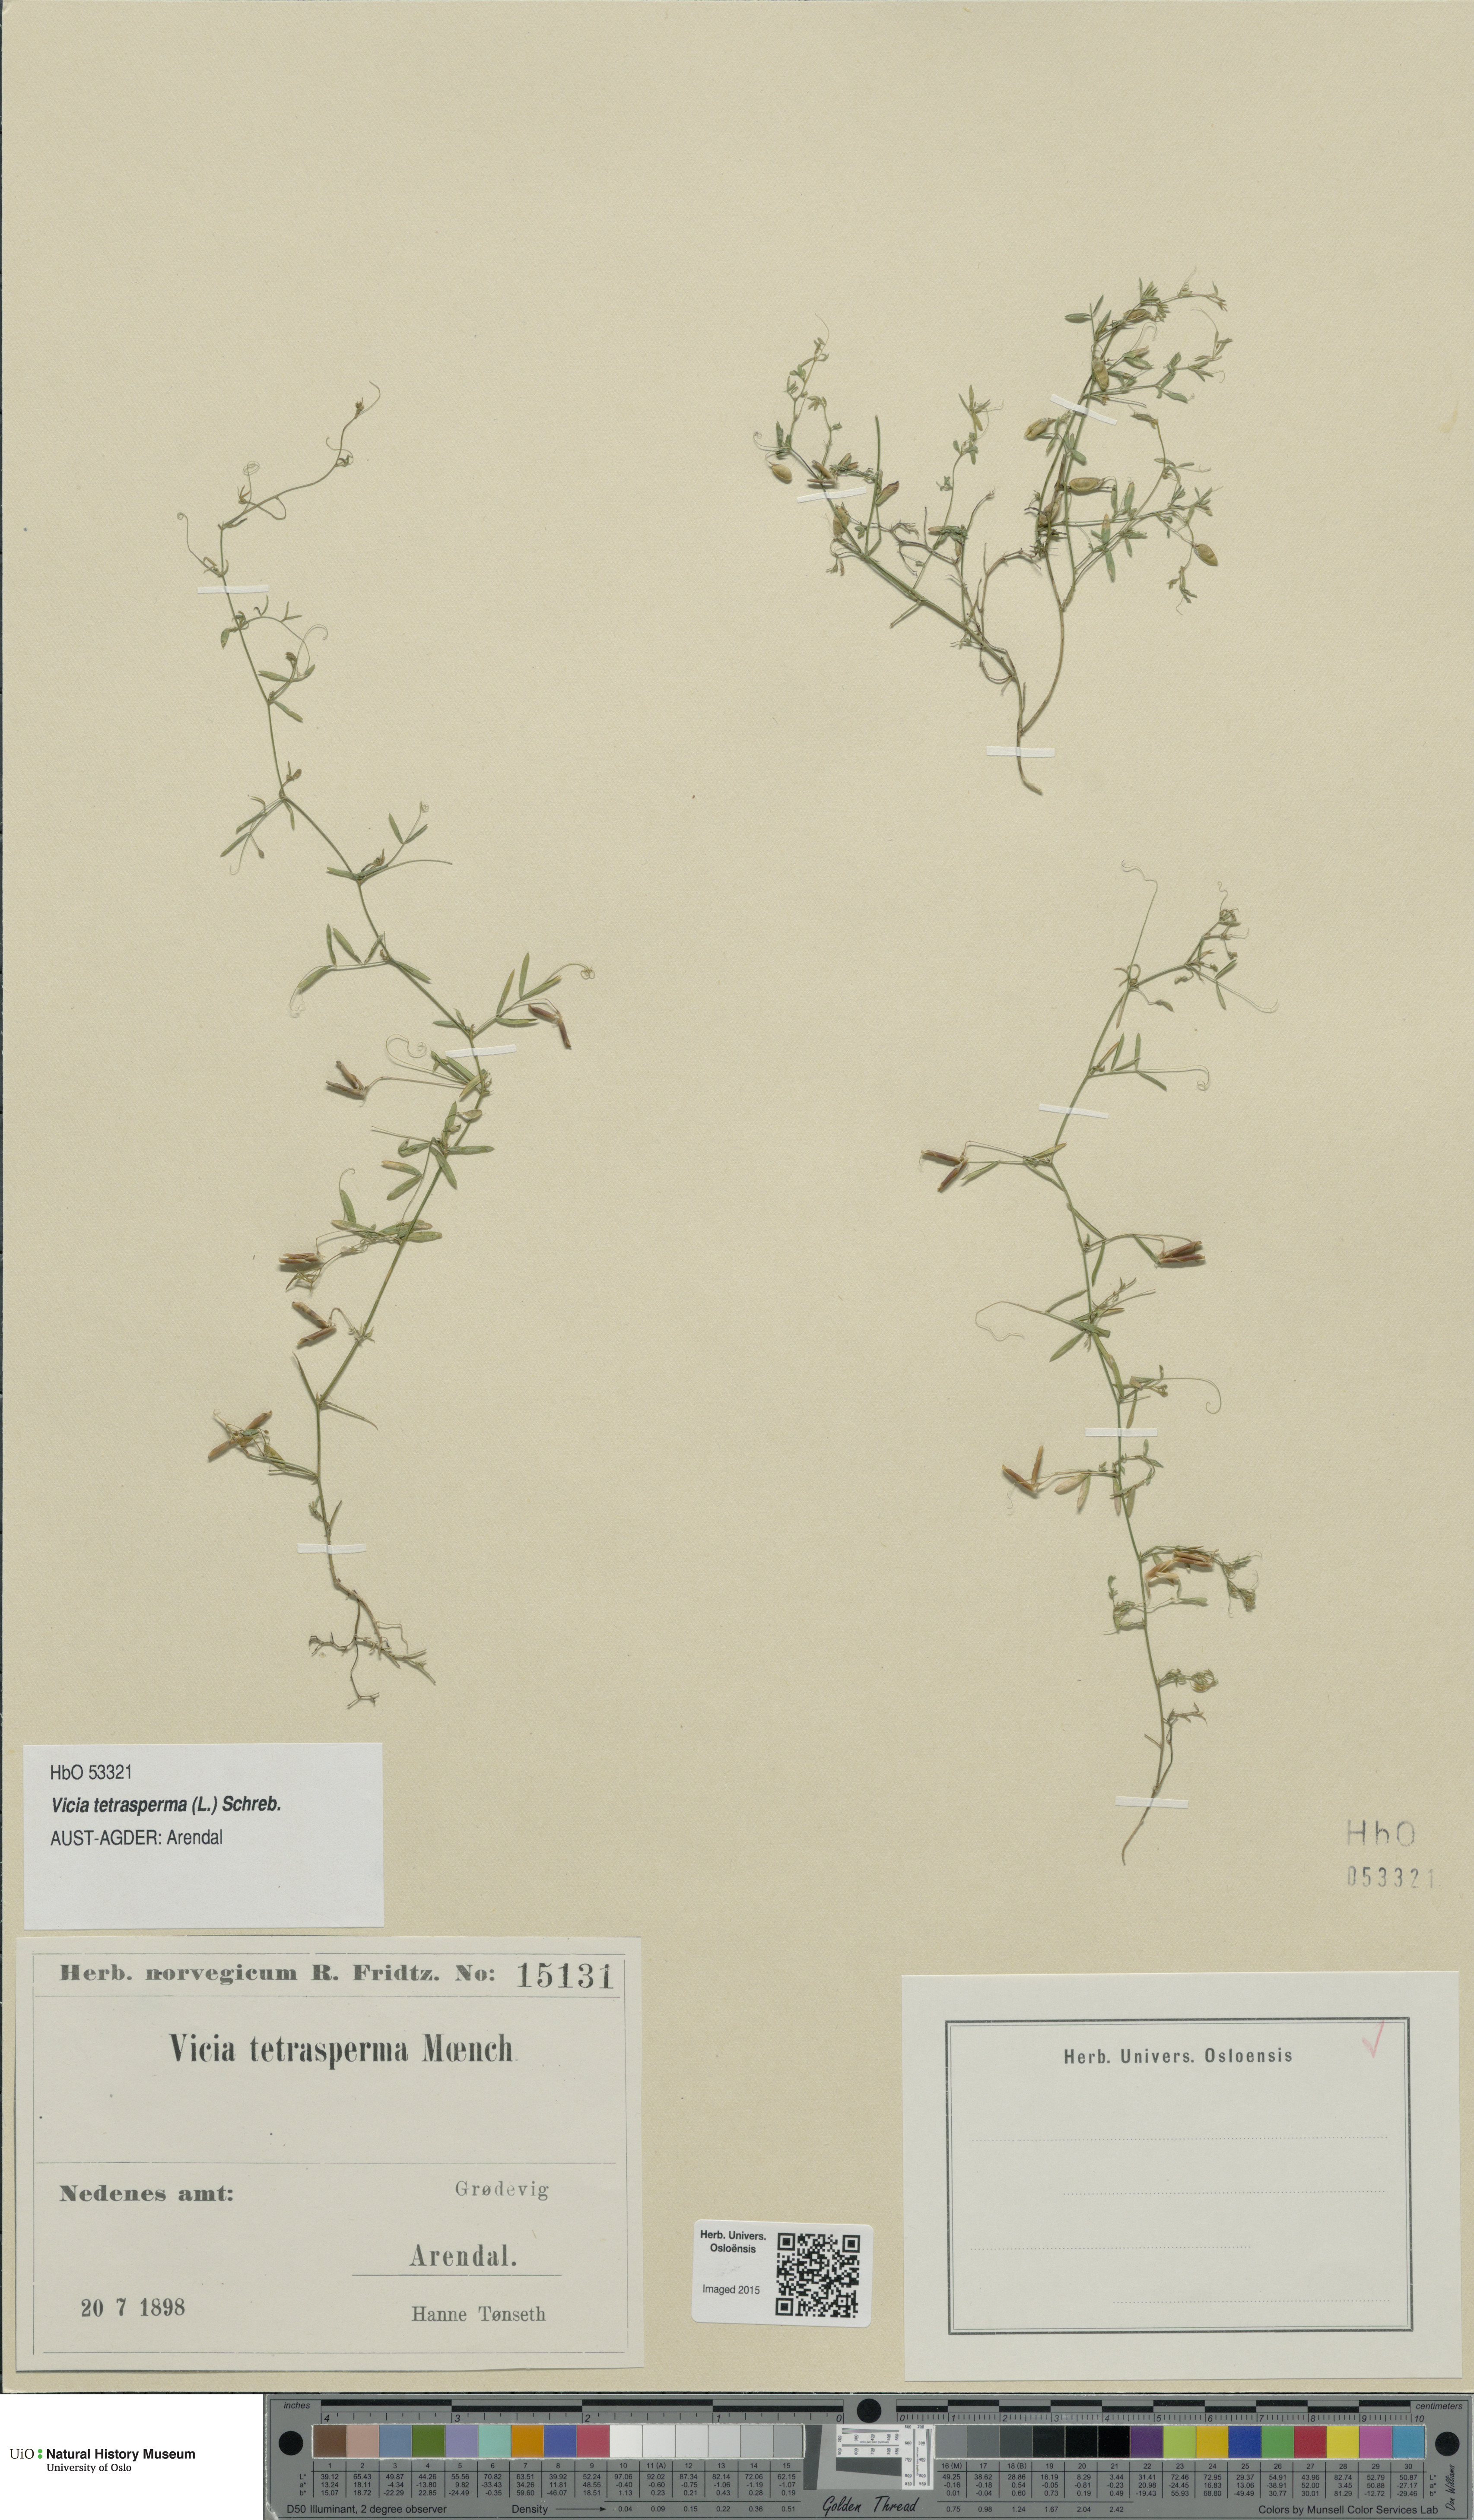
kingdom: Plantae
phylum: Tracheophyta
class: Magnoliopsida
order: Fabales
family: Fabaceae
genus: Vicia
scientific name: Vicia tetrasperma
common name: Smooth tare
